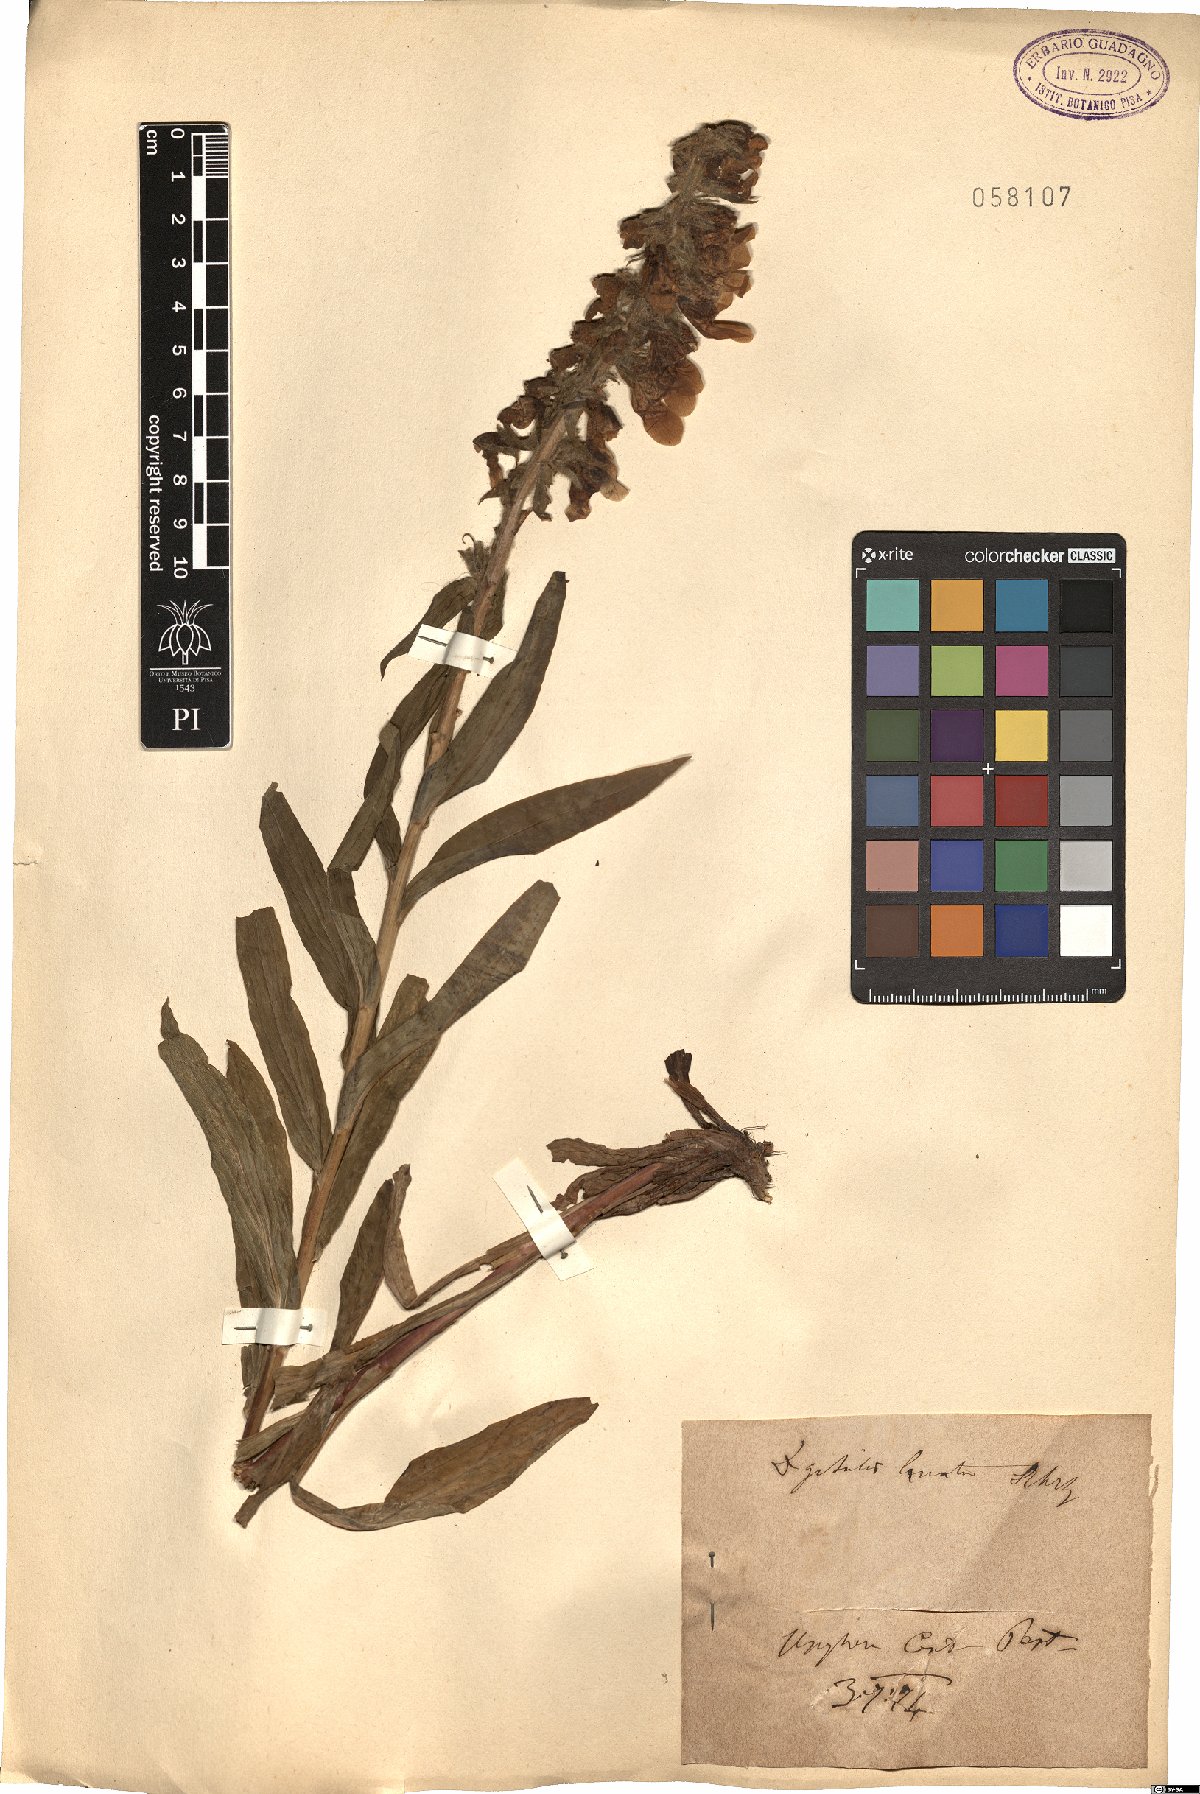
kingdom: Plantae
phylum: Tracheophyta
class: Magnoliopsida
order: Lamiales
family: Plantaginaceae
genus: Digitalis
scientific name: Digitalis lanata
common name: Grecian foxglove
